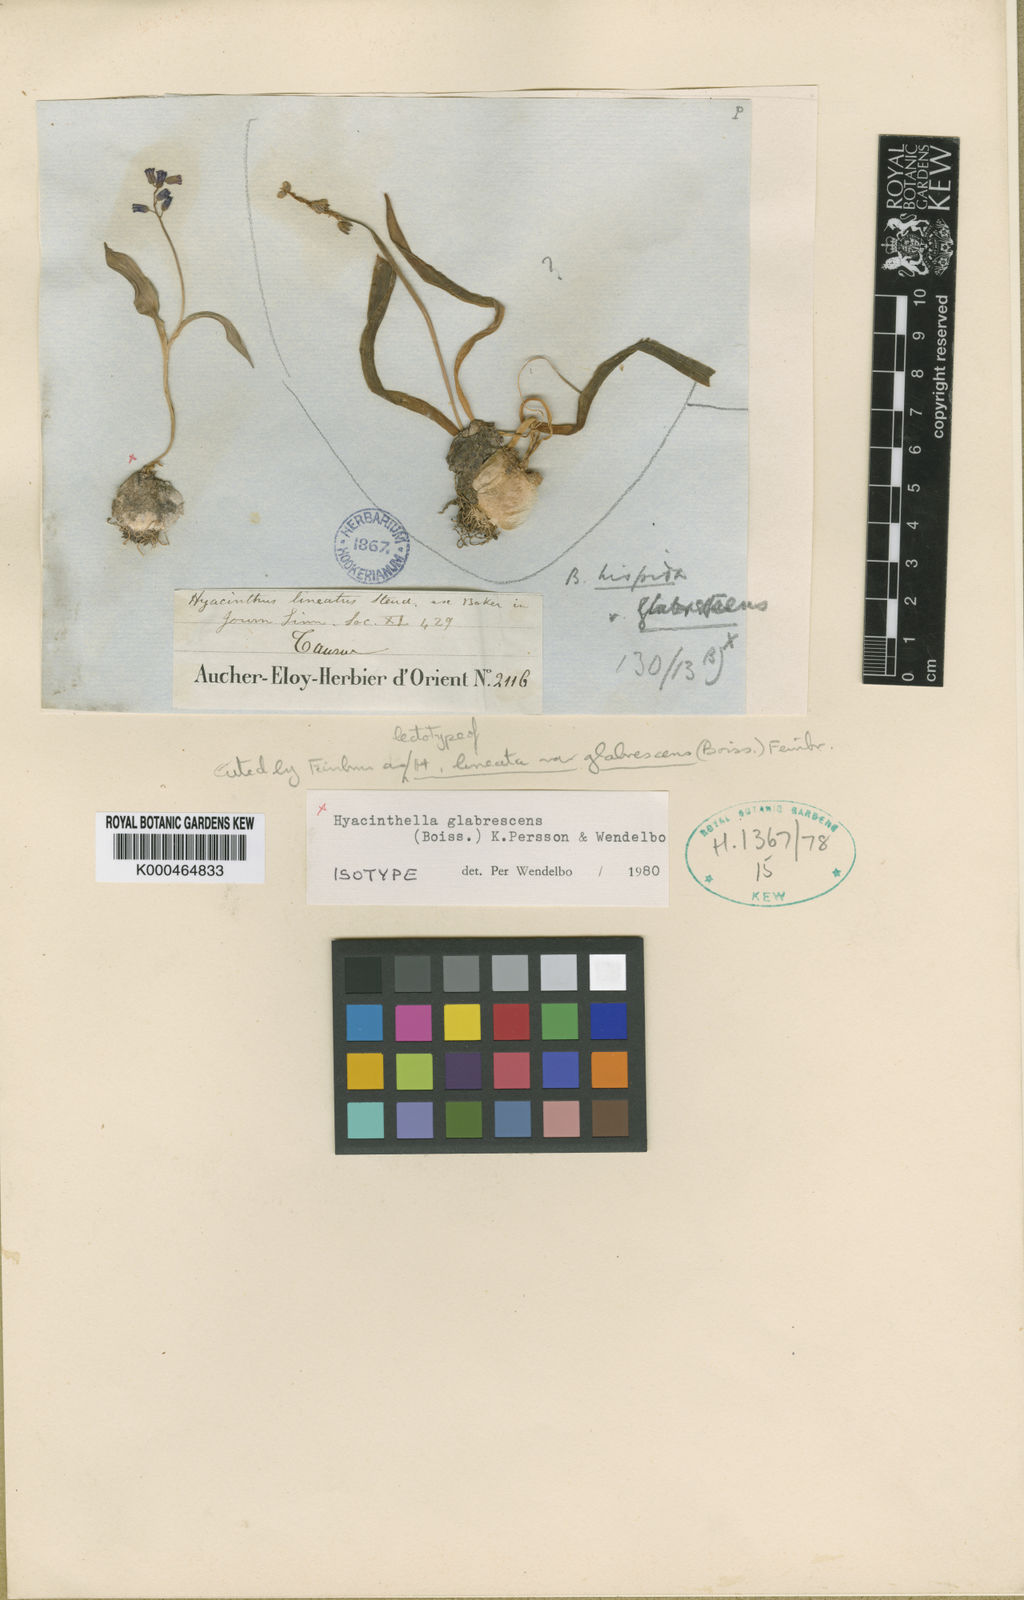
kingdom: Plantae
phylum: Tracheophyta
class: Liliopsida
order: Asparagales
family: Asparagaceae
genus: Hyacinthus
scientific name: Hyacinthus
